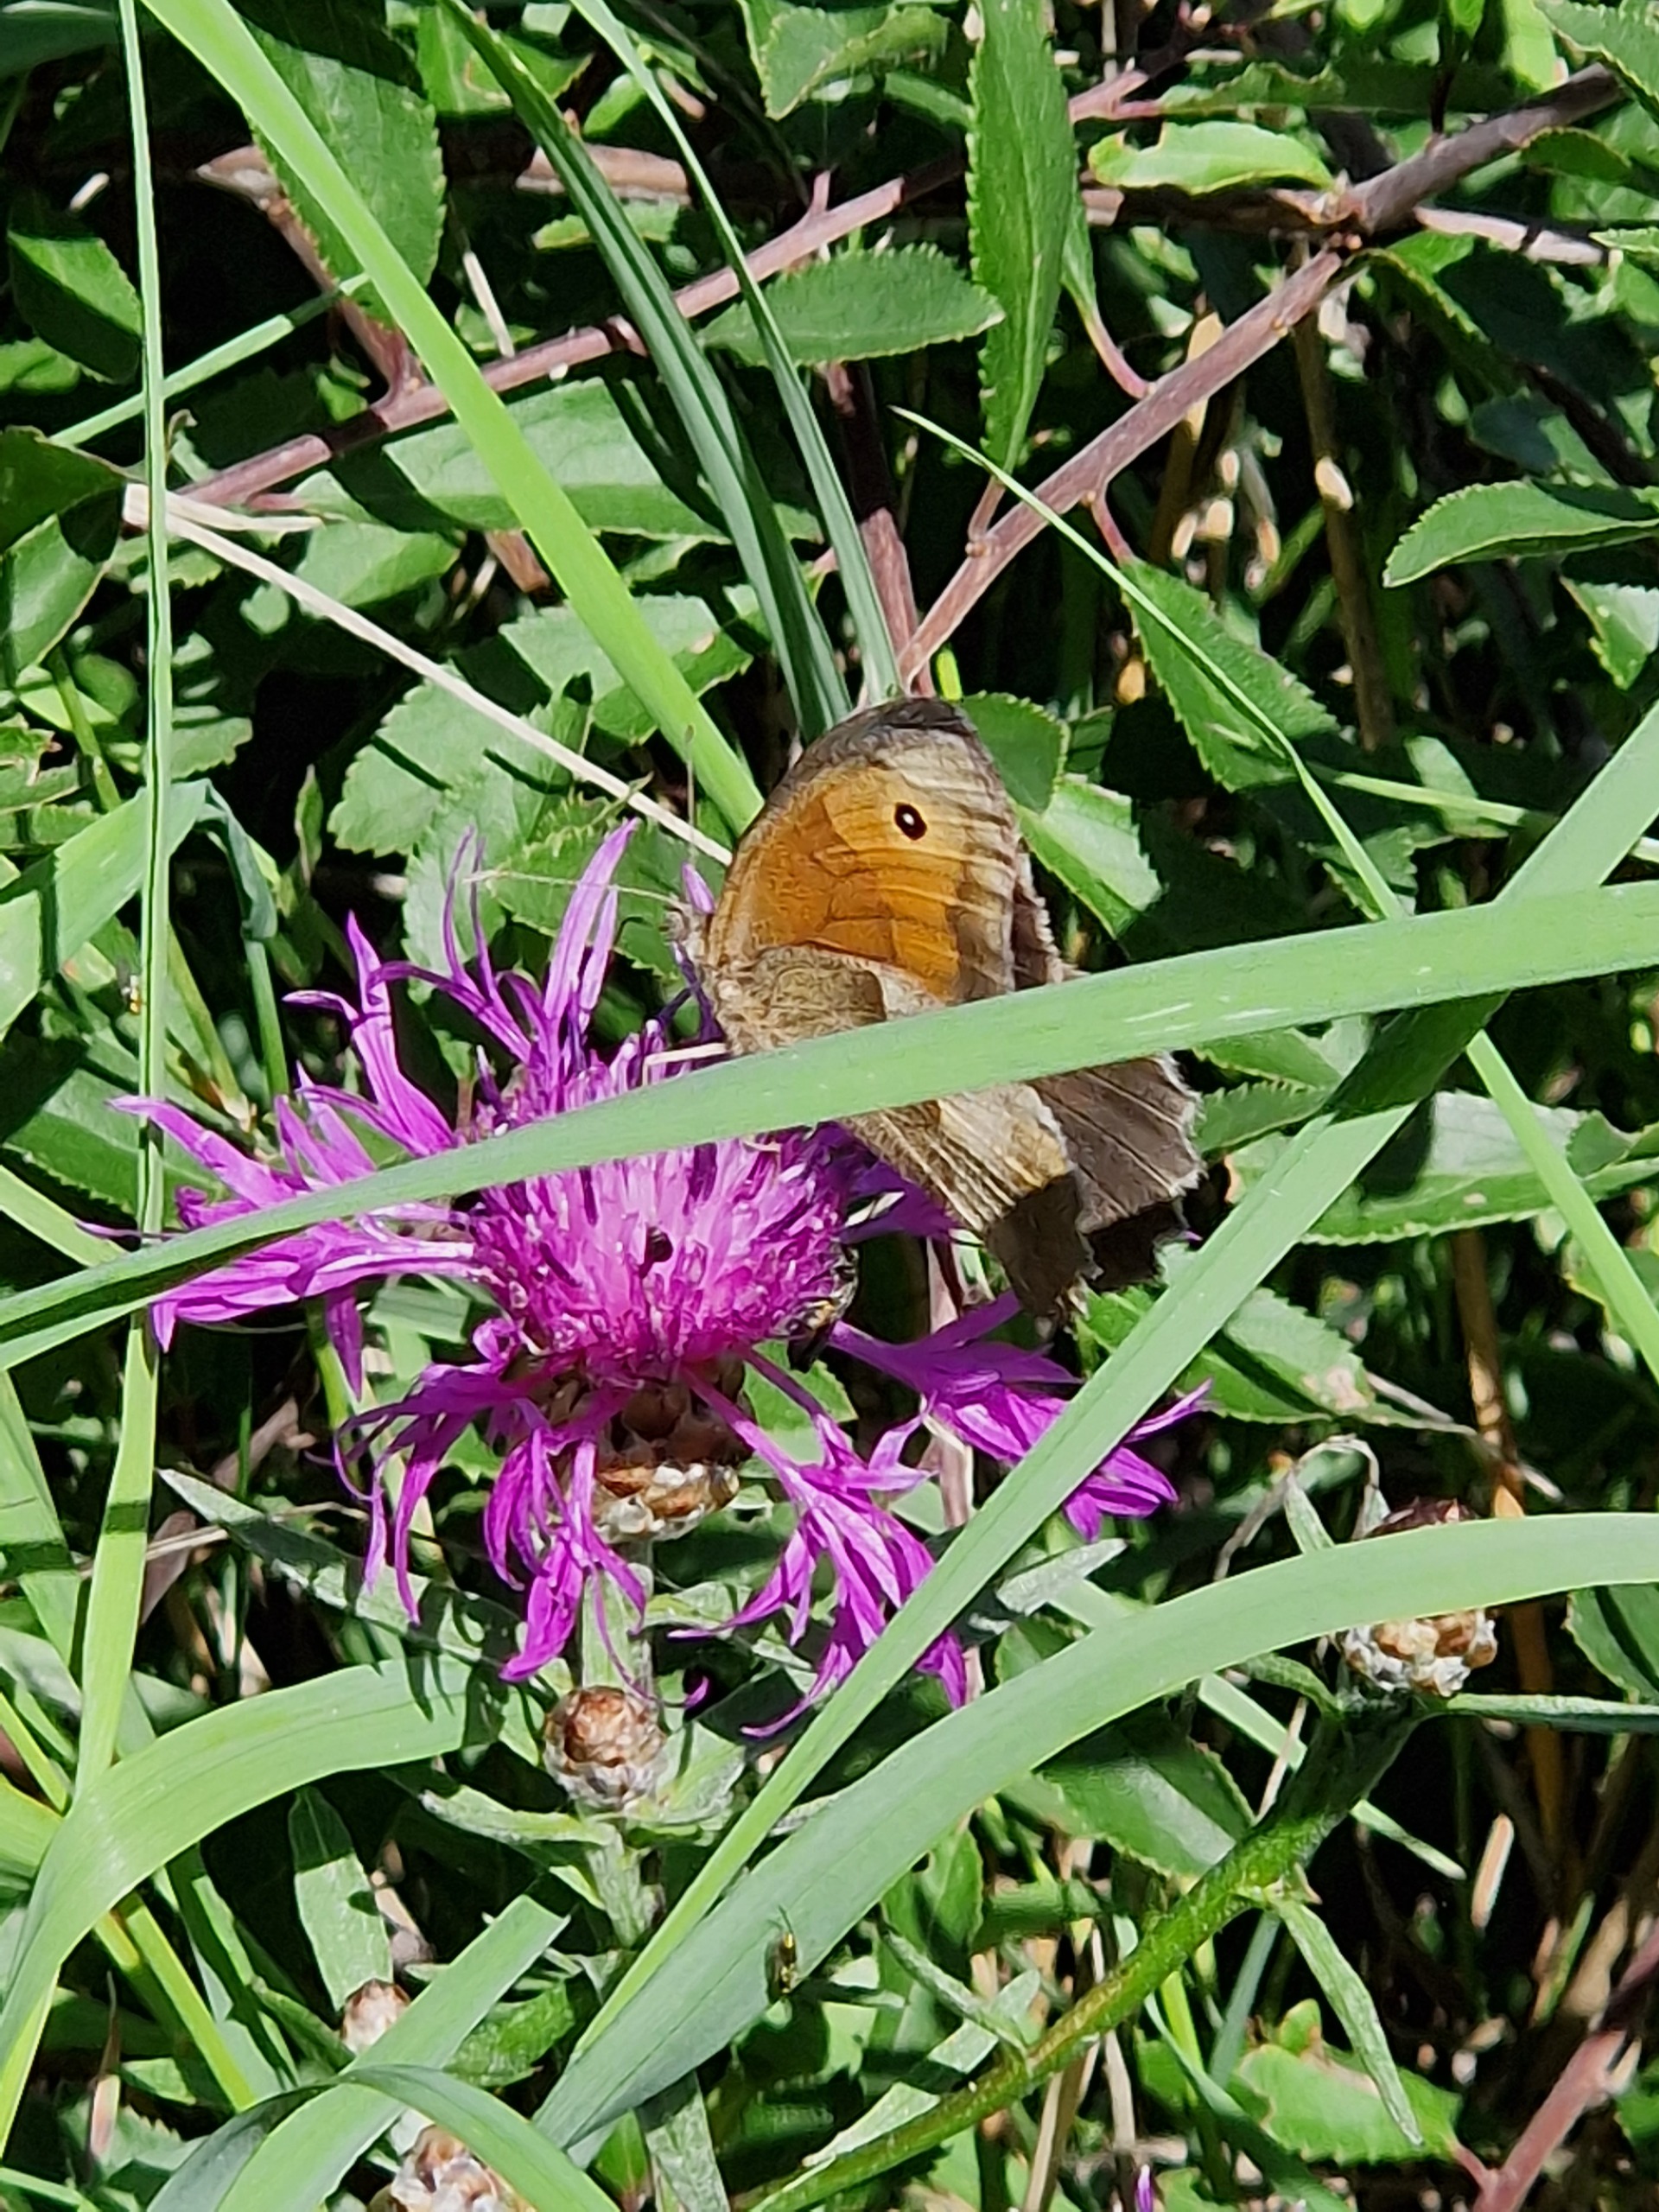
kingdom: Animalia
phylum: Arthropoda
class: Insecta
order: Lepidoptera
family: Nymphalidae
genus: Maniola
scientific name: Maniola jurtina
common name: Græsrandøje
